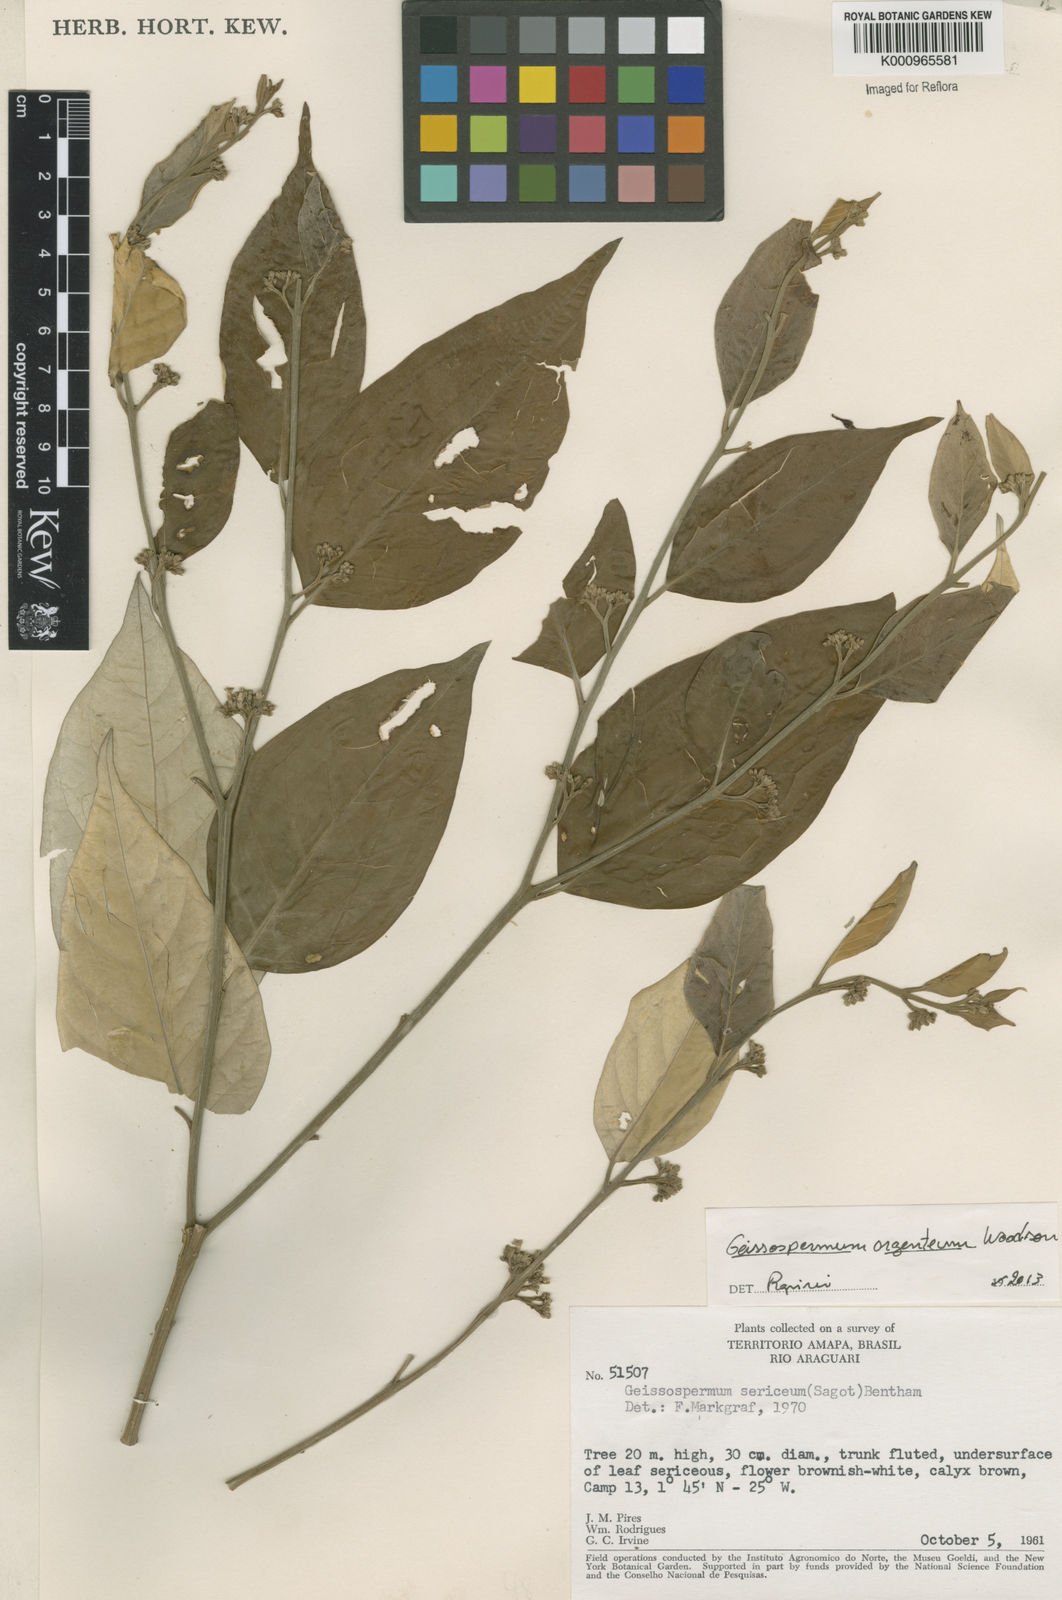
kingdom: Plantae
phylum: Tracheophyta
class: Magnoliopsida
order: Gentianales
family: Apocynaceae
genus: Geissospermum
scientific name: Geissospermum argenteum
